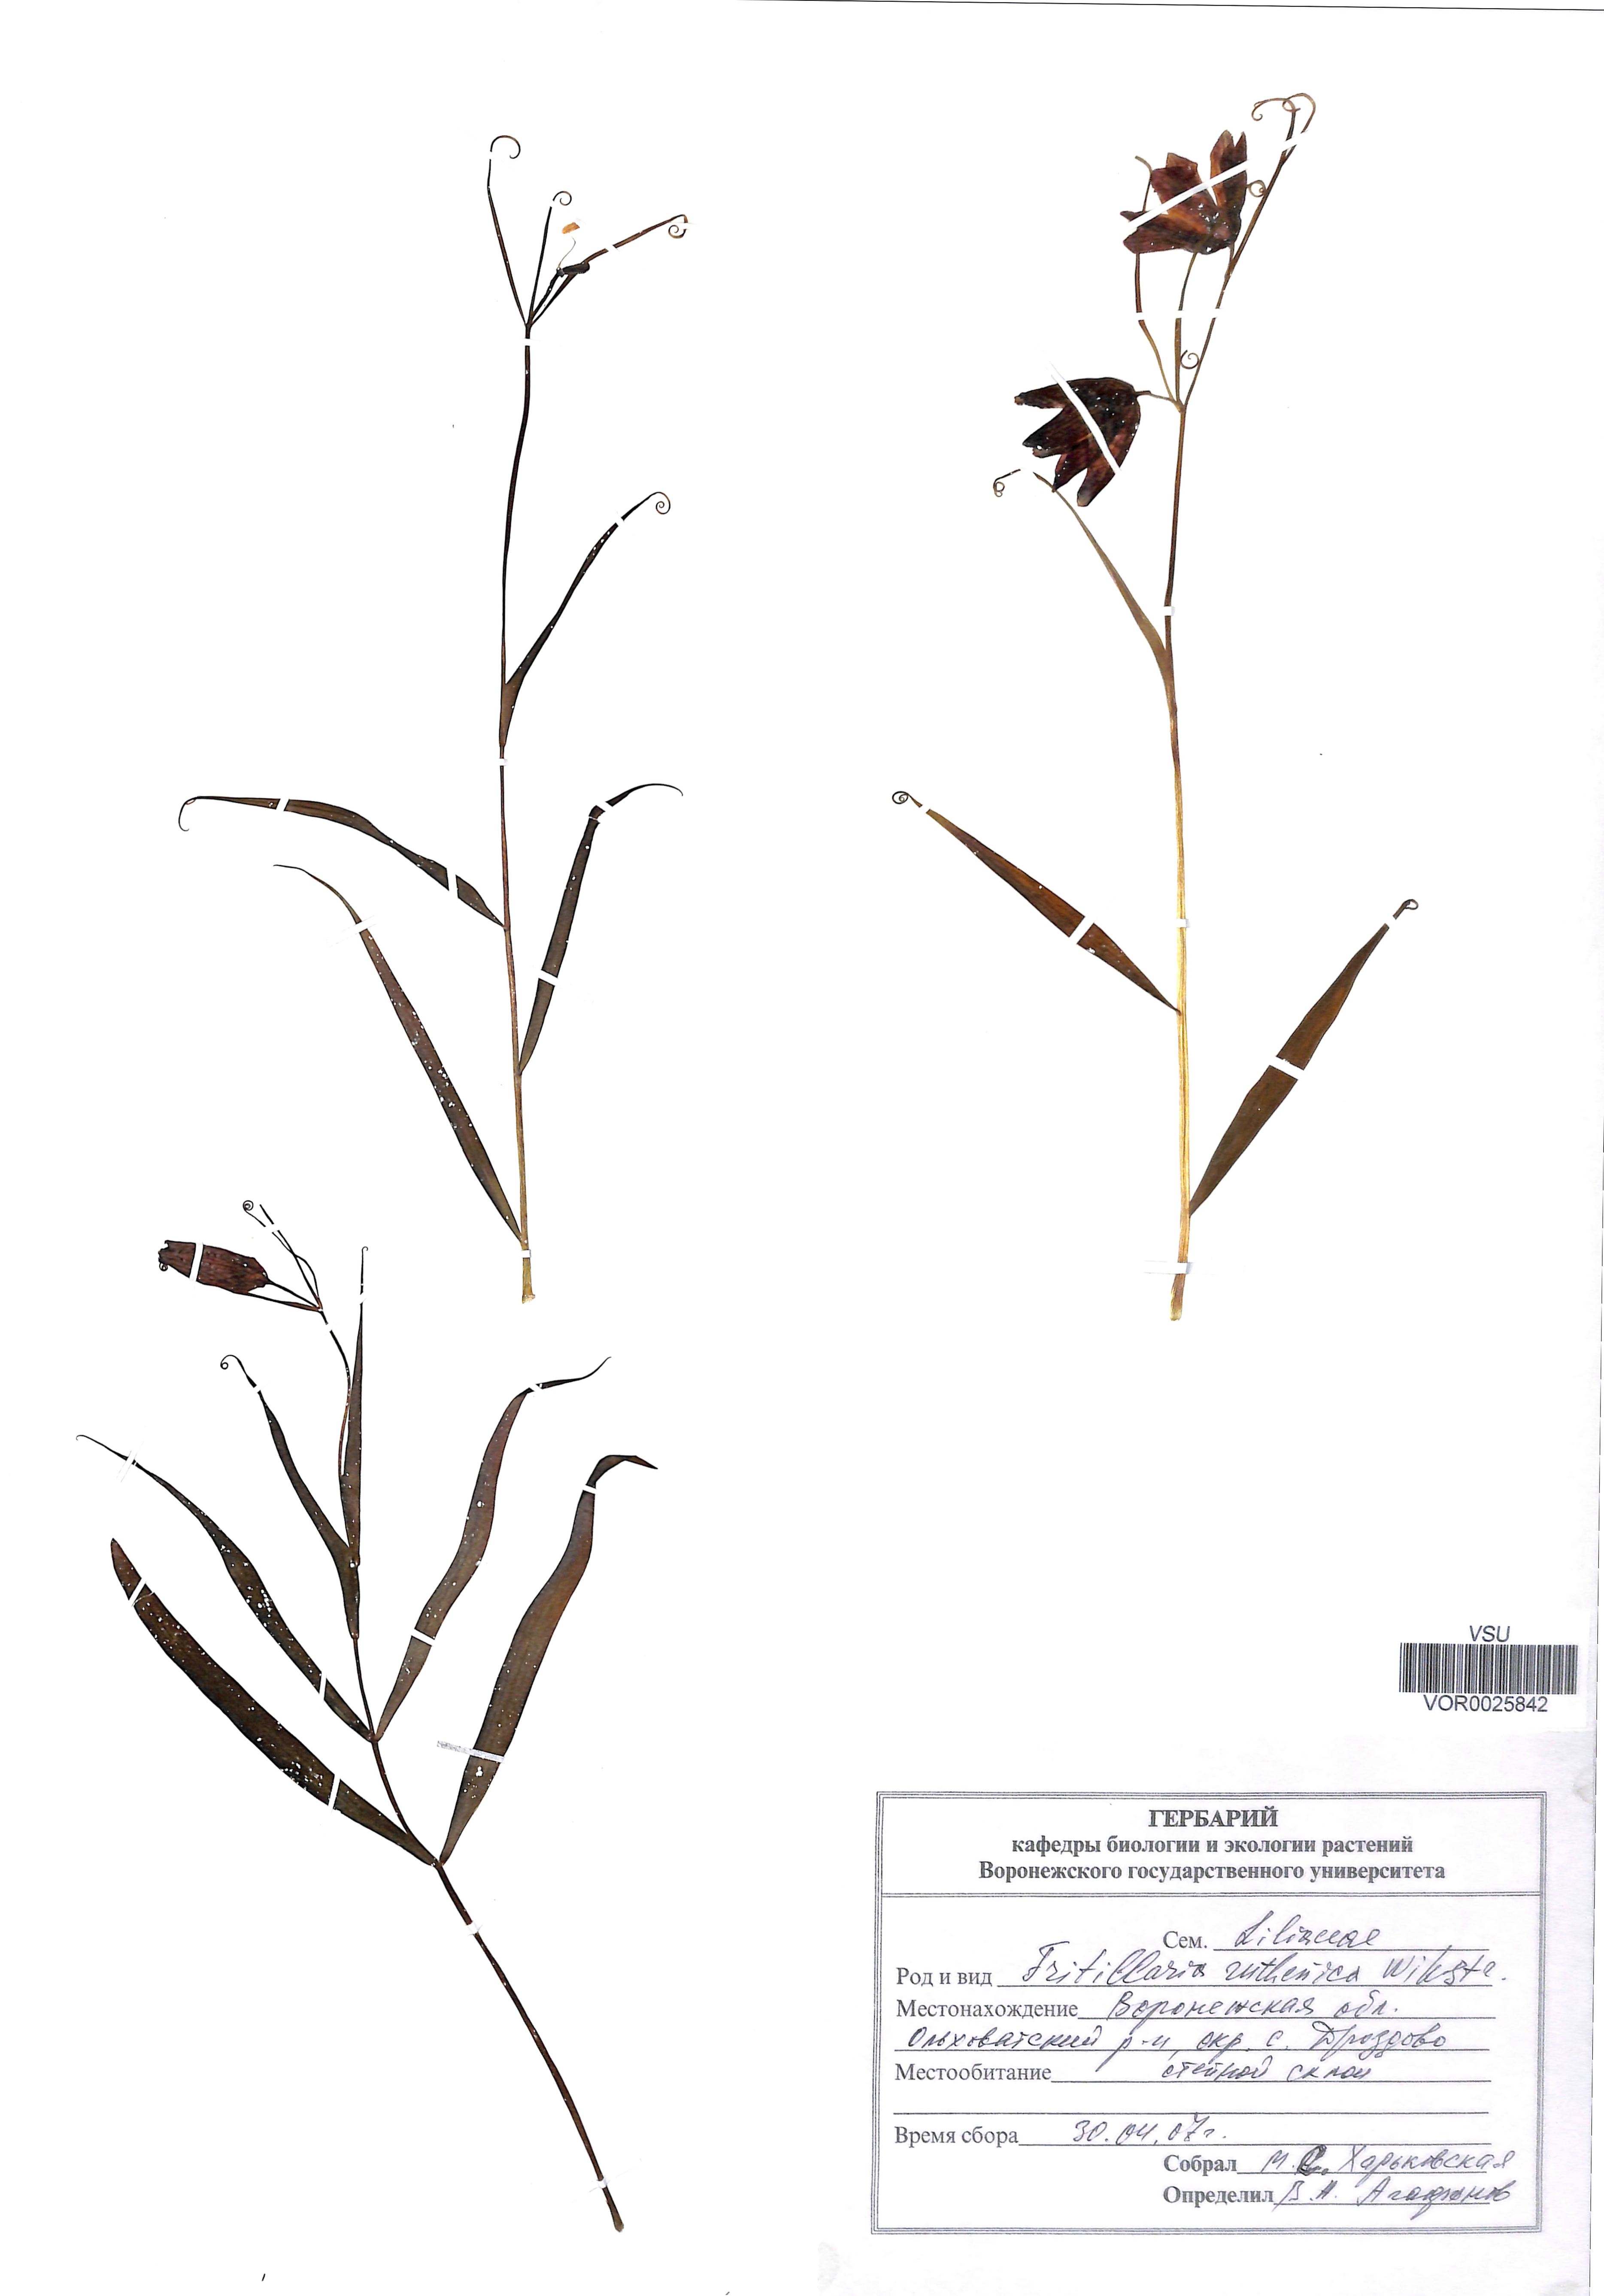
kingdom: Plantae
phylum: Tracheophyta
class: Liliopsida
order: Liliales
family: Liliaceae
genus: Fritillaria
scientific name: Fritillaria ruthenica
